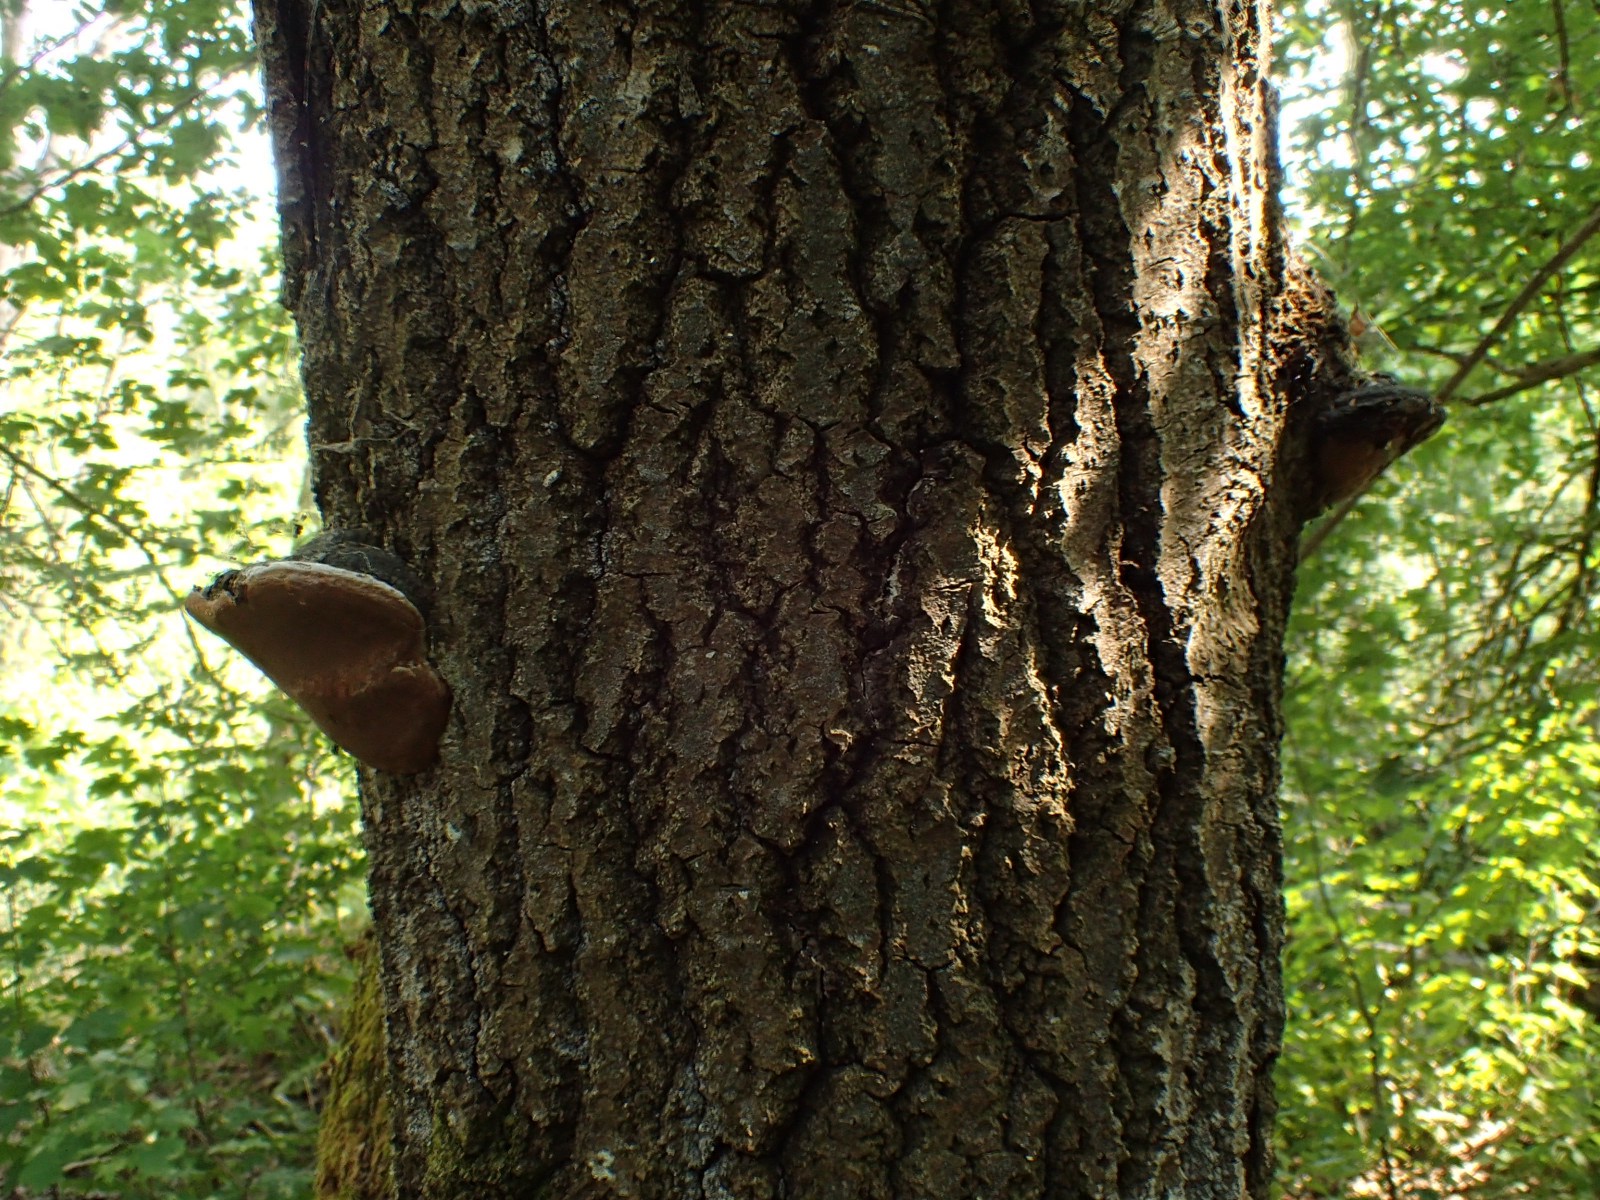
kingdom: Fungi
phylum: Basidiomycota
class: Agaricomycetes
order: Hymenochaetales
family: Hymenochaetaceae
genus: Phellinus
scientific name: Phellinus tremulae
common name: aspe-ildporesvamp
